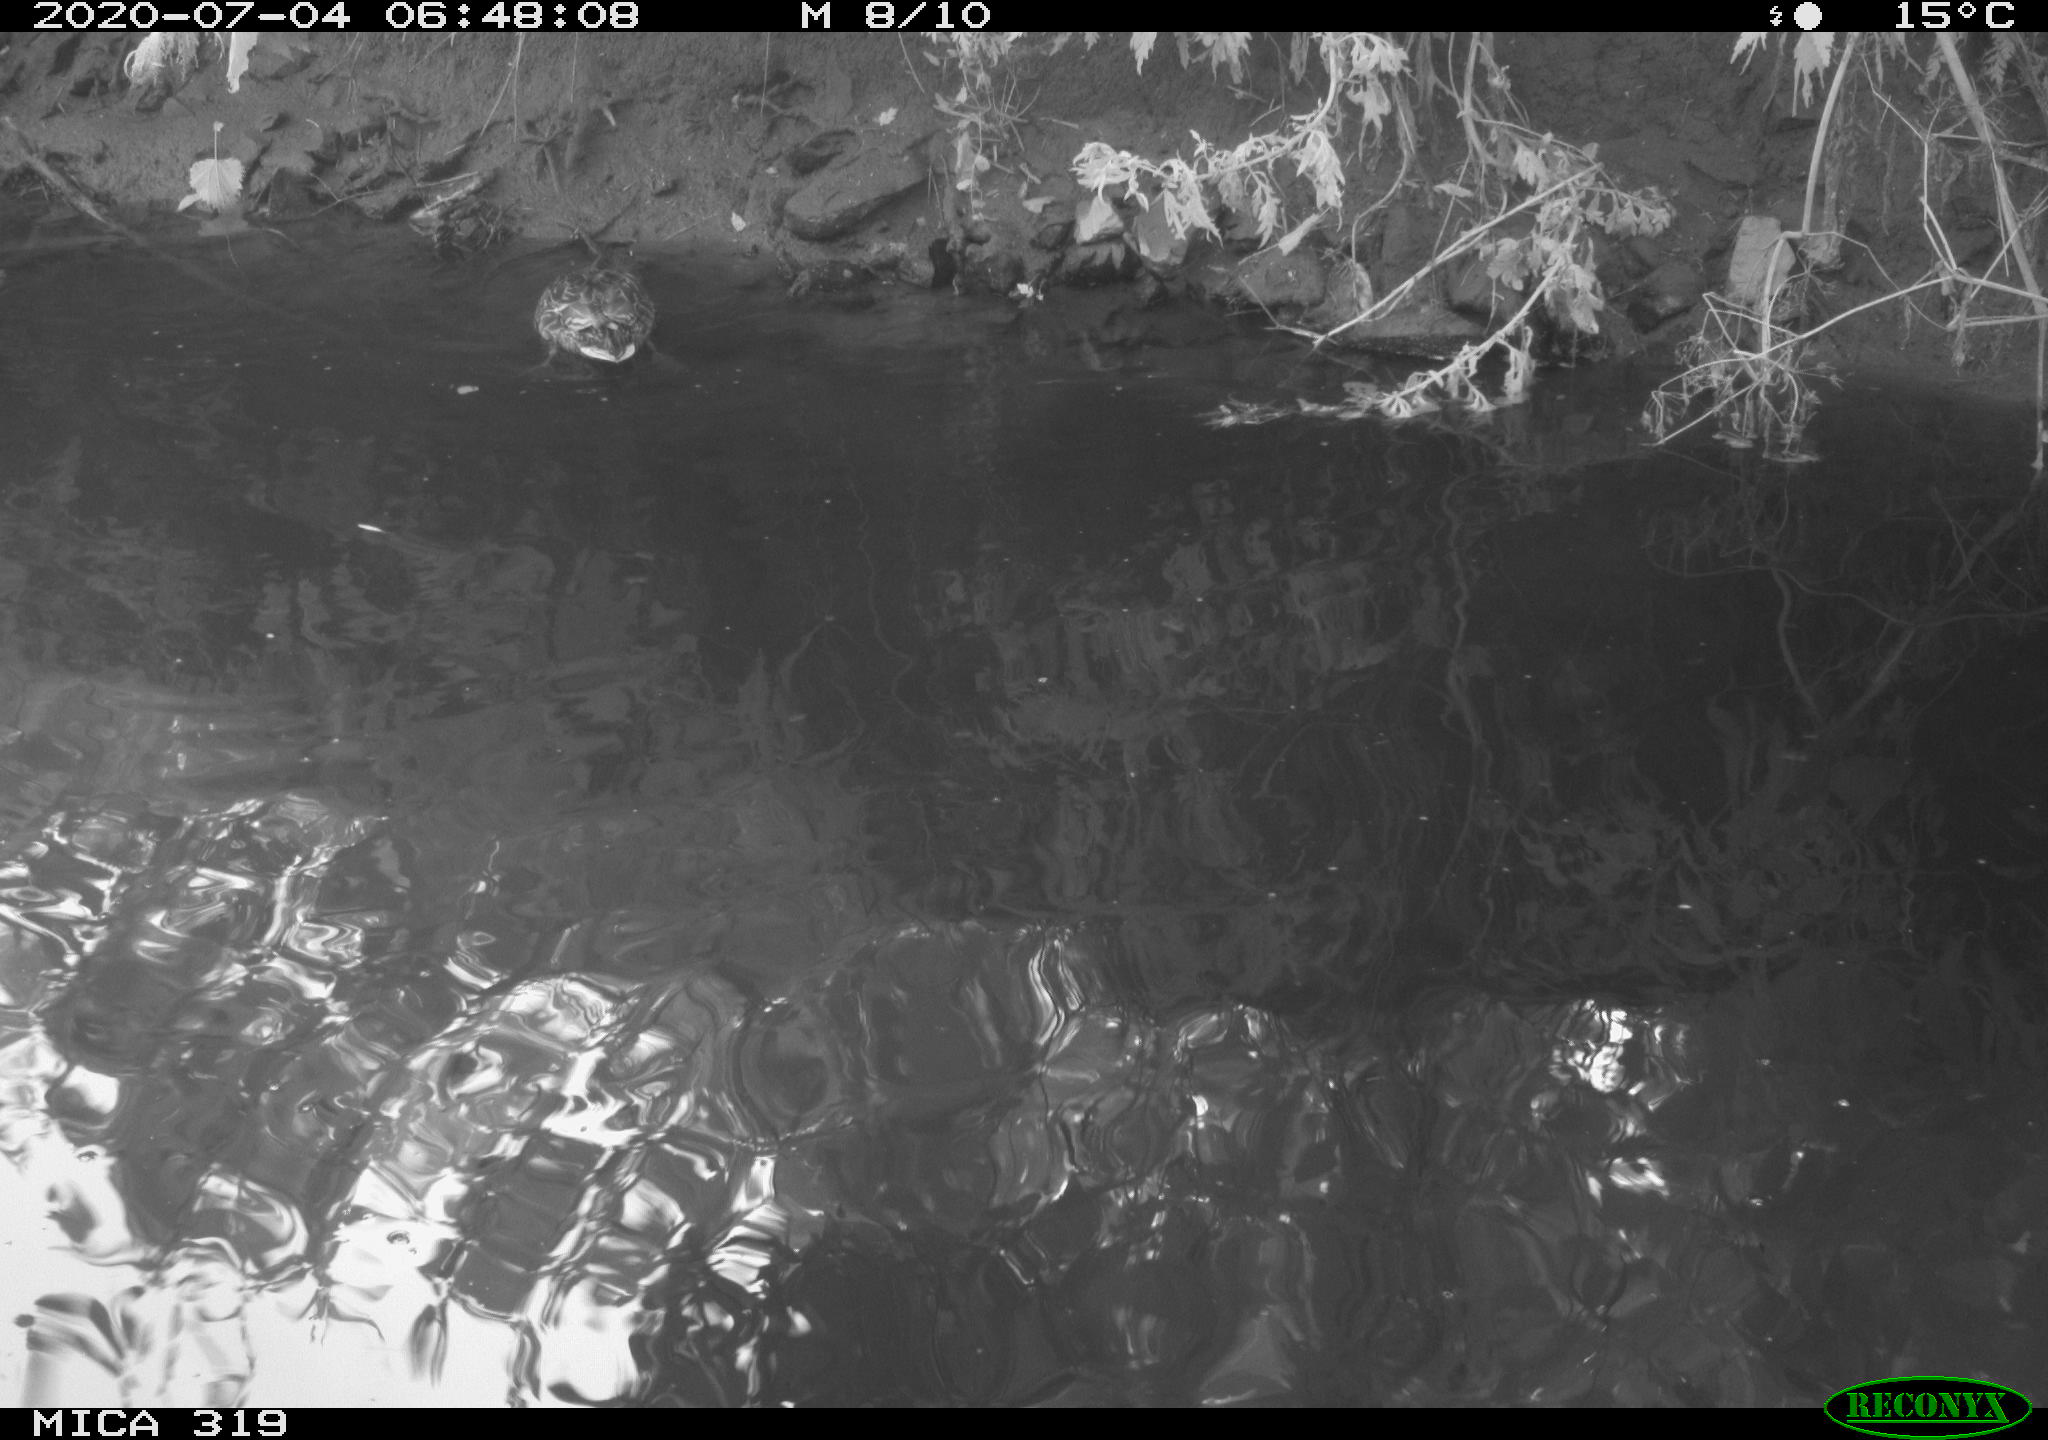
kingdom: Animalia
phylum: Chordata
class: Aves
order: Anseriformes
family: Anatidae
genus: Anas
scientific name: Anas platyrhynchos
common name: Mallard
